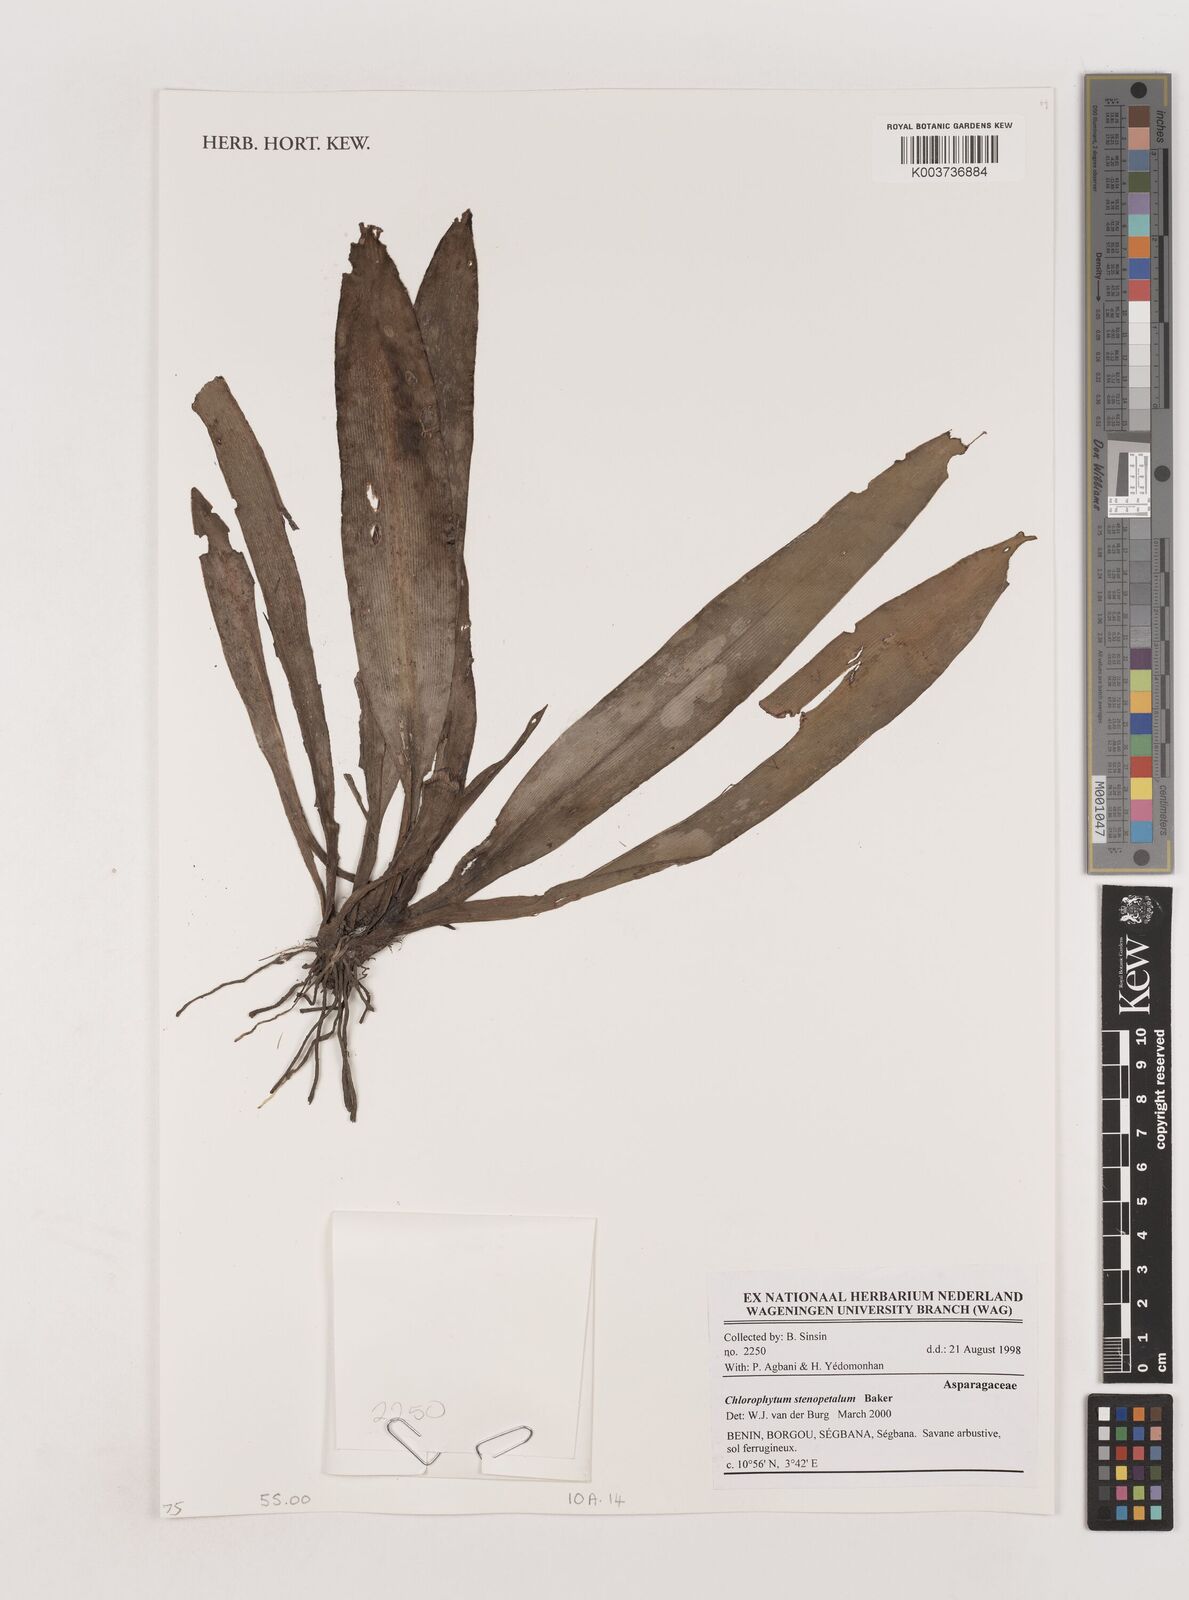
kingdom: Plantae
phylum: Tracheophyta
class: Liliopsida
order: Asparagales
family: Asparagaceae
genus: Chlorophytum
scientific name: Chlorophytum stenopetalum
